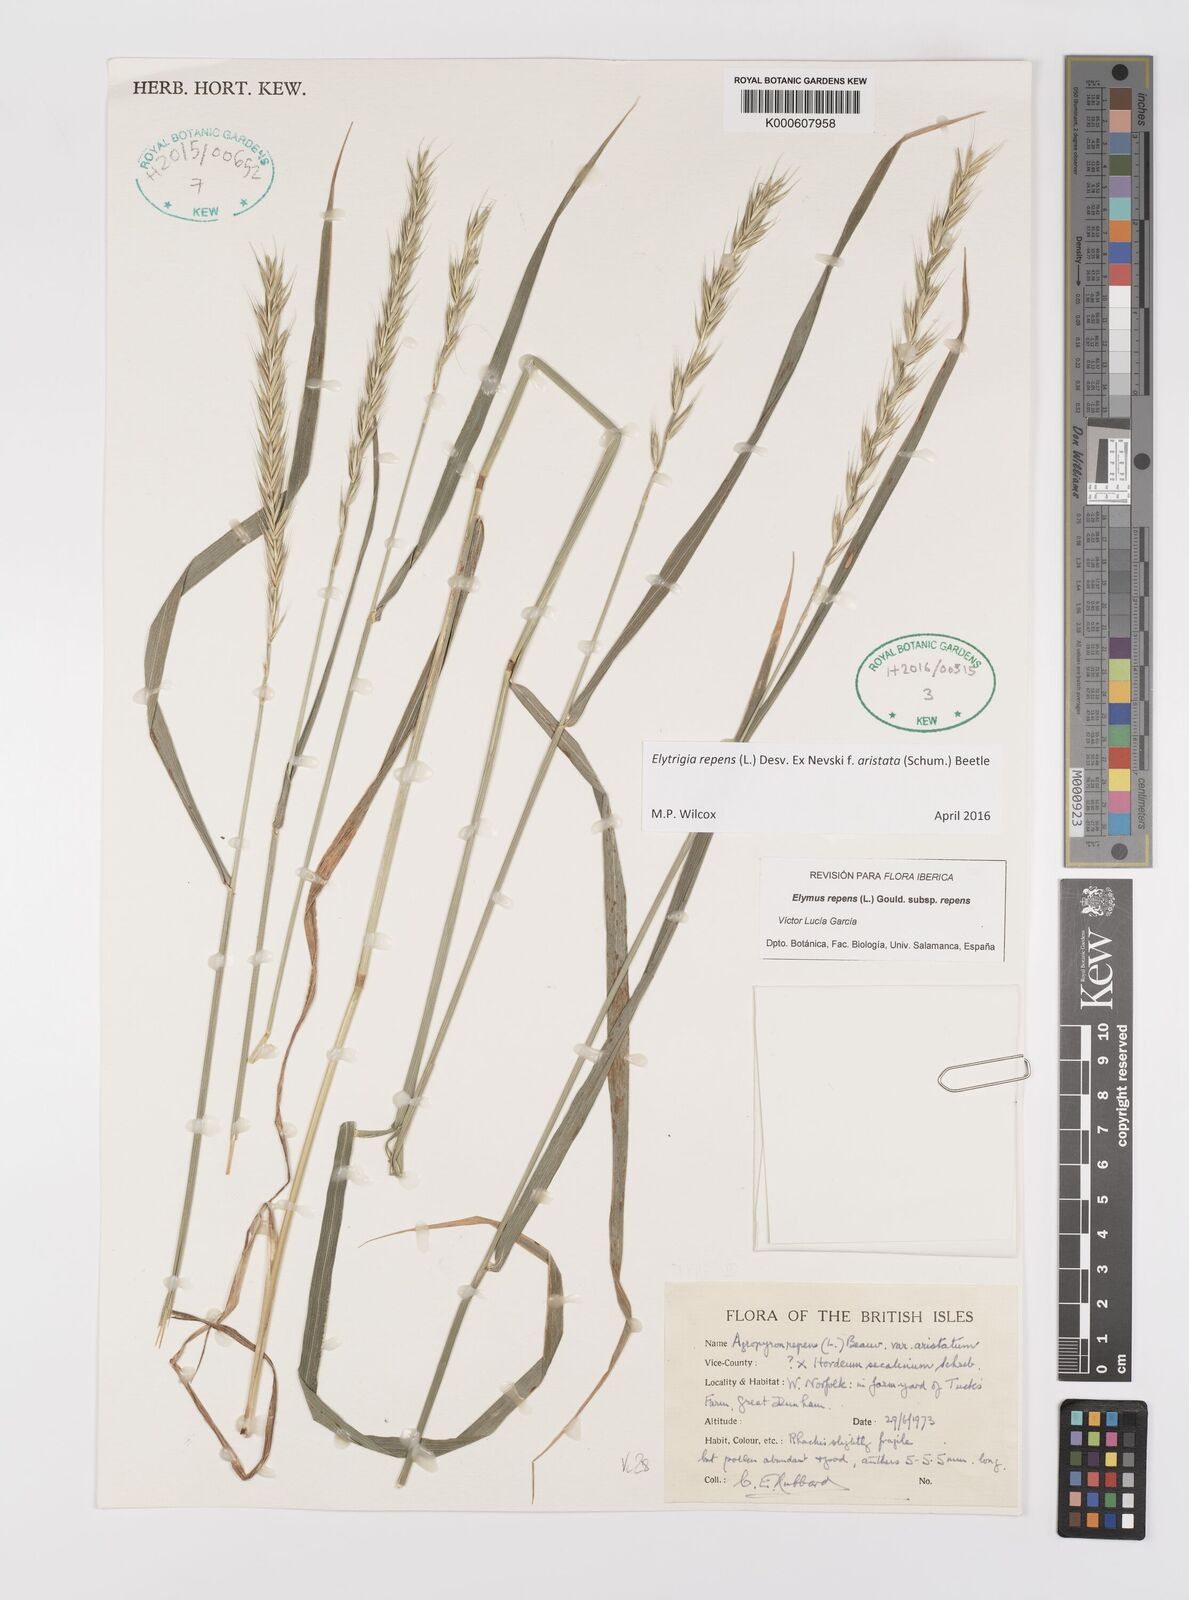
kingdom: Plantae
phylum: Tracheophyta
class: Liliopsida
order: Poales
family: Poaceae
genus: Elymus
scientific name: Elymus repens
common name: Quackgrass
